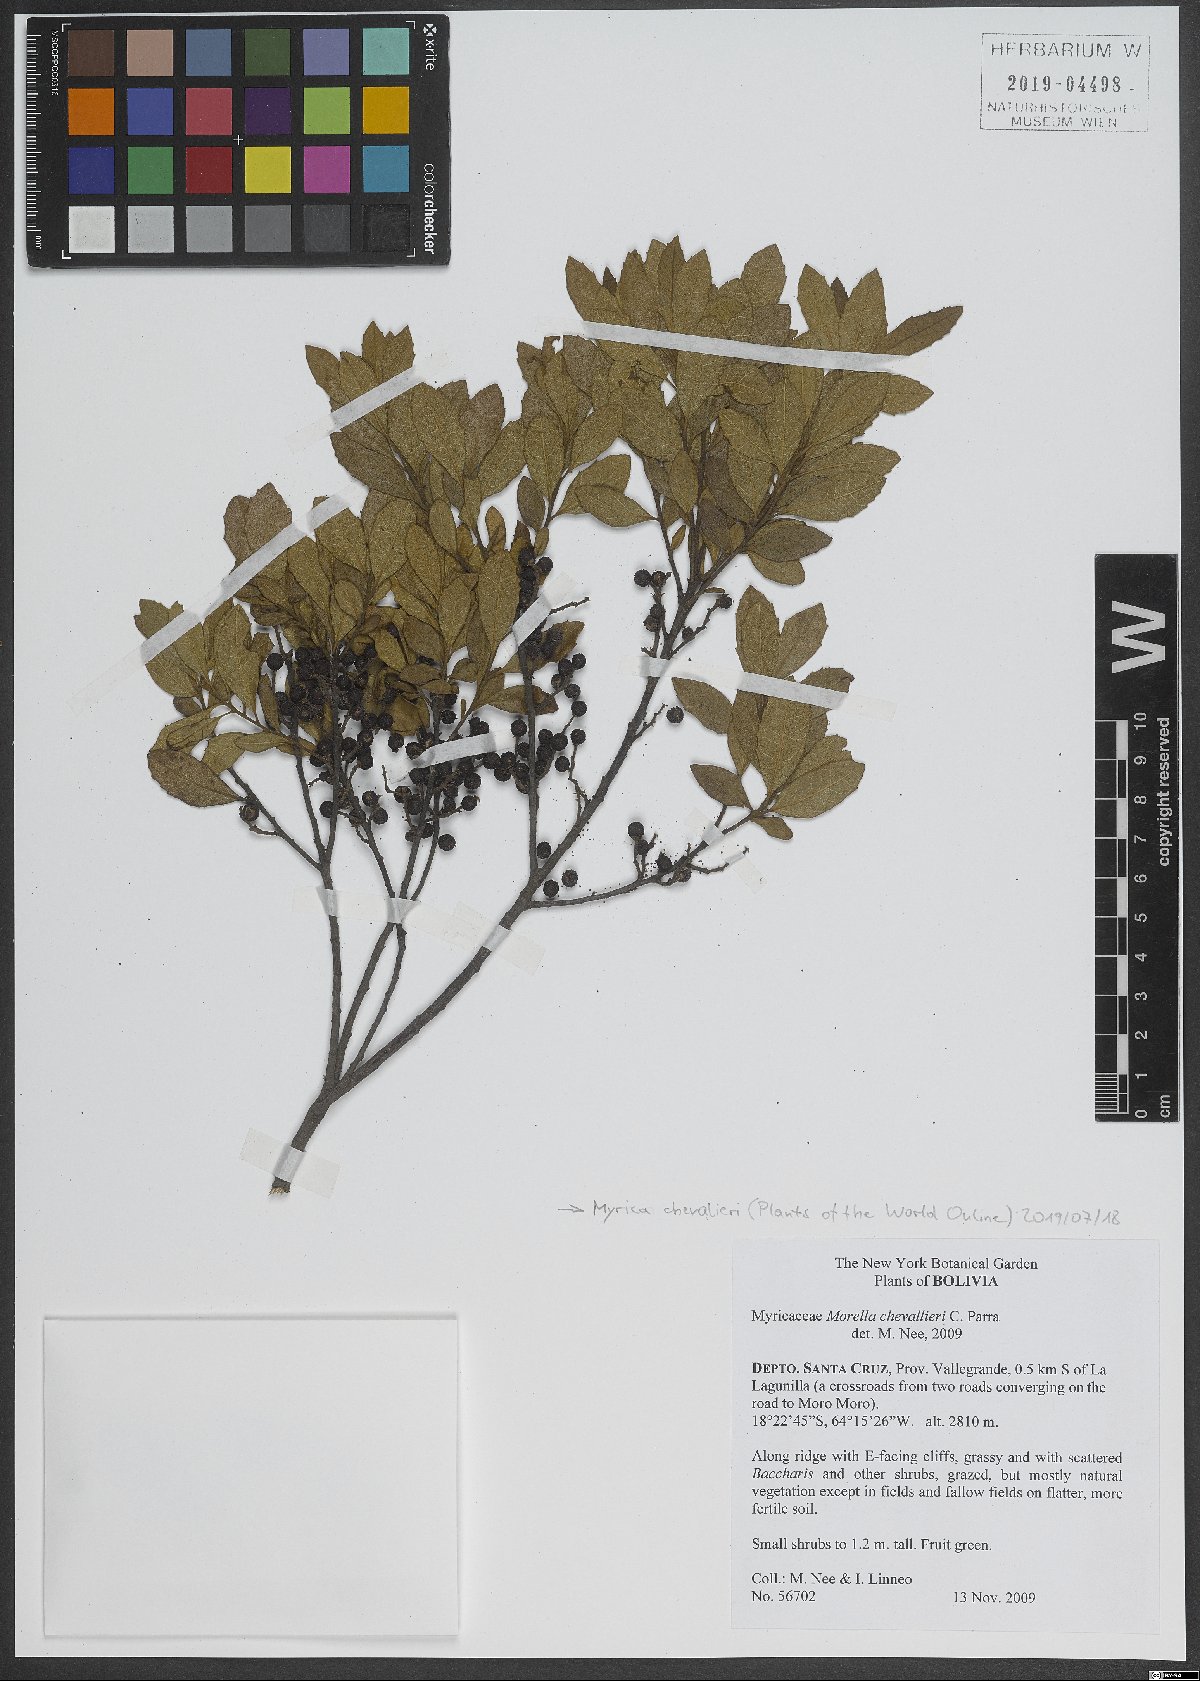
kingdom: Plantae
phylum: Tracheophyta
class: Magnoliopsida
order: Fagales
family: Myricaceae
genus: Morella
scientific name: Morella chevalieri
